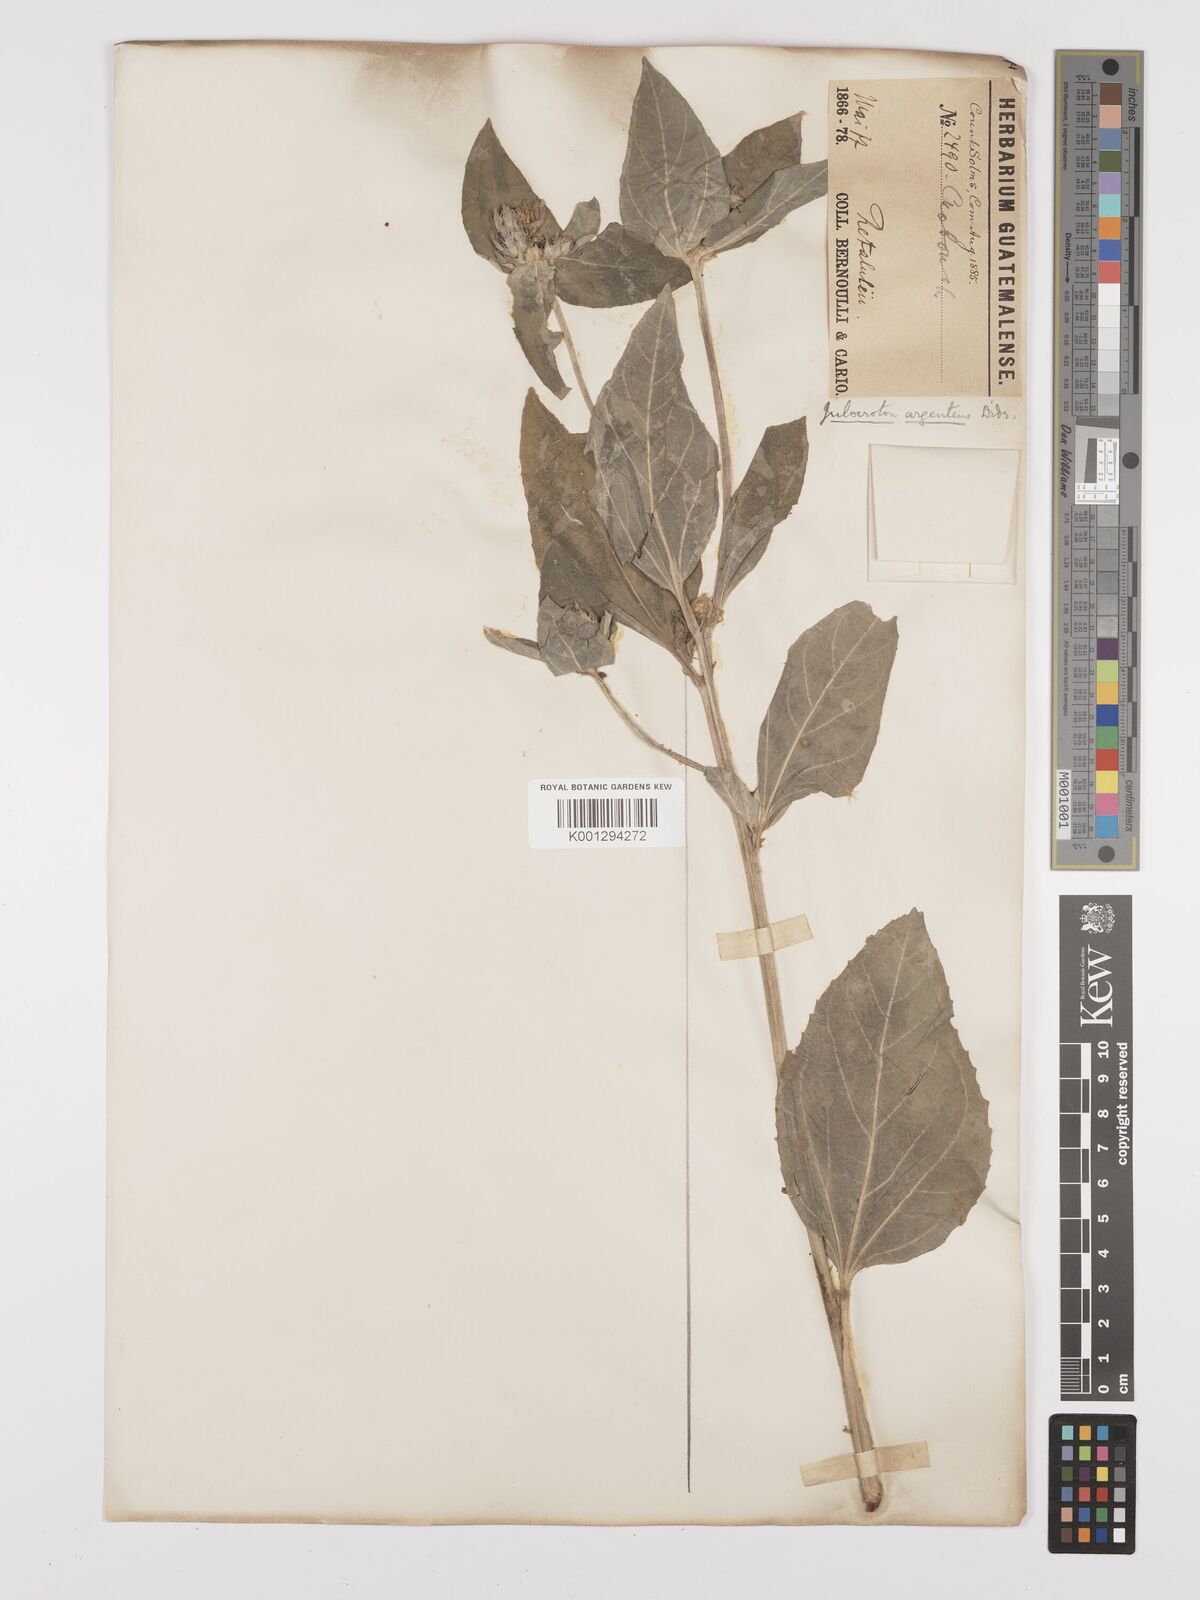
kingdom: Plantae
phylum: Tracheophyta
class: Magnoliopsida
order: Malpighiales
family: Euphorbiaceae
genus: Croton
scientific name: Croton argenteus
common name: Silver july croton
